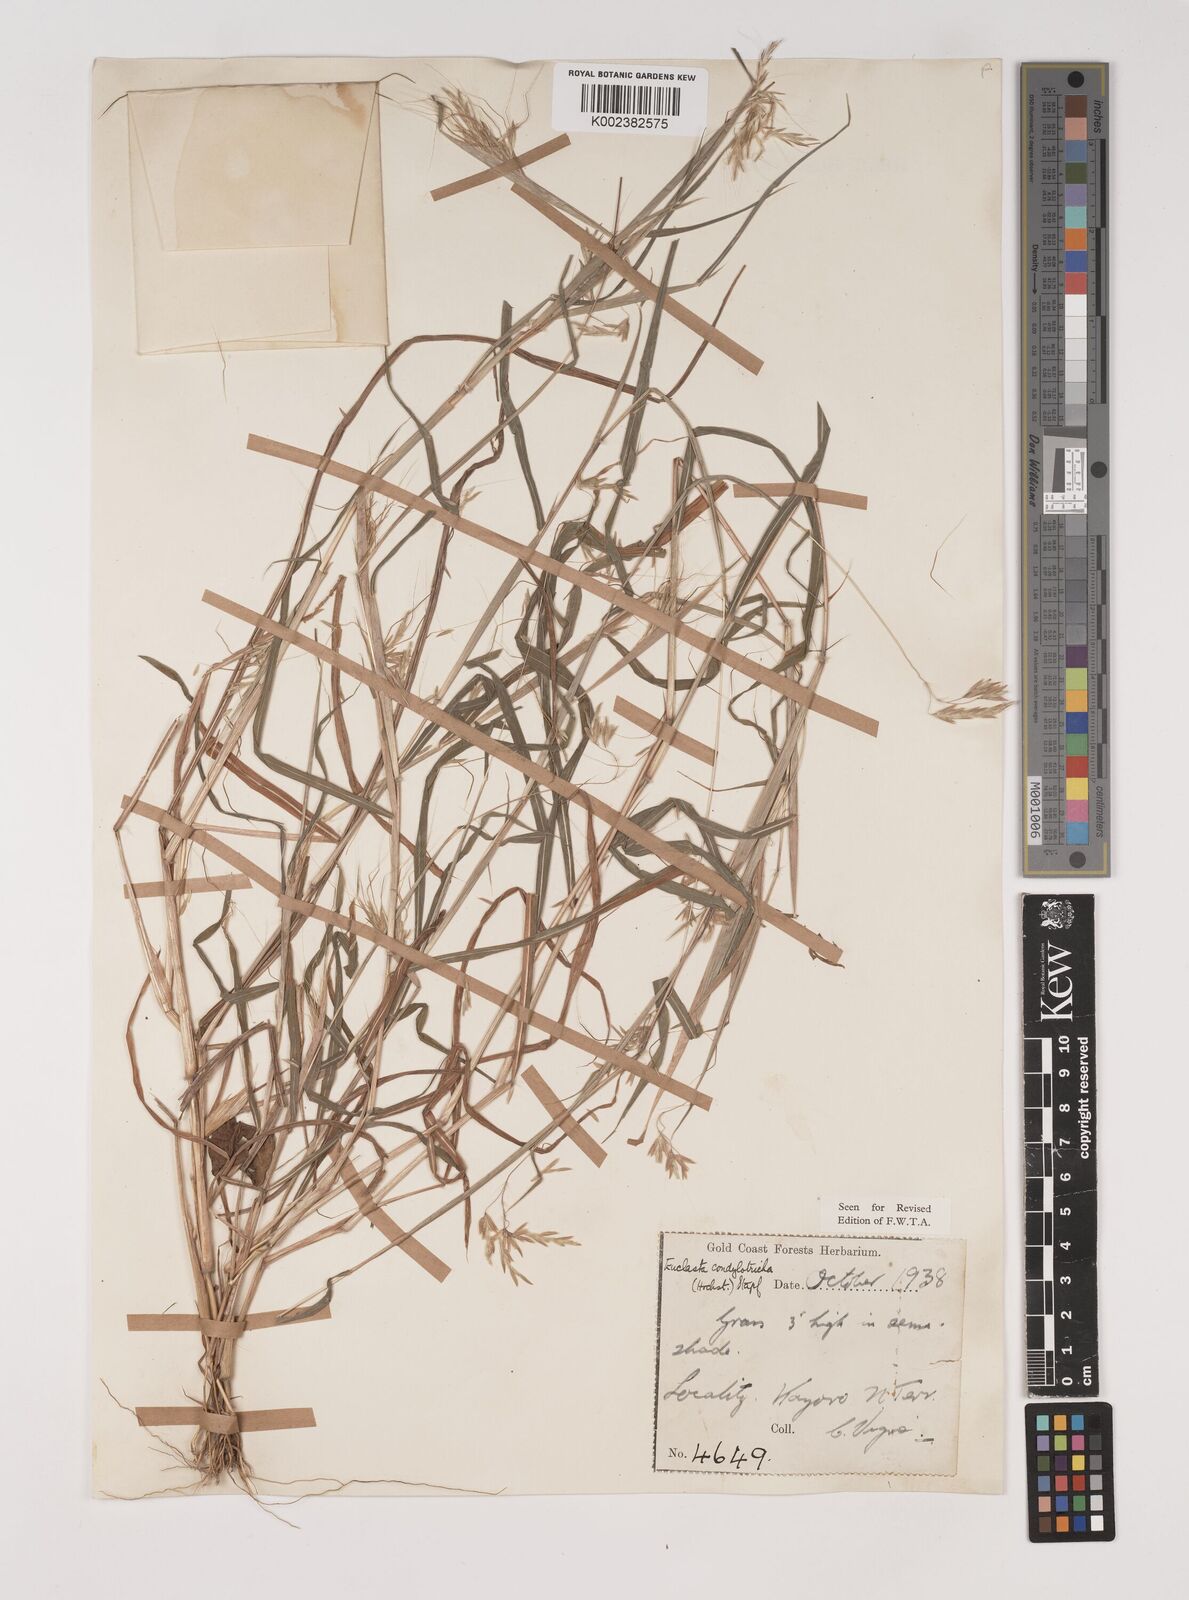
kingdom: Plantae
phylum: Tracheophyta
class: Liliopsida
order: Poales
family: Poaceae
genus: Euclasta
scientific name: Euclasta condylotricha
